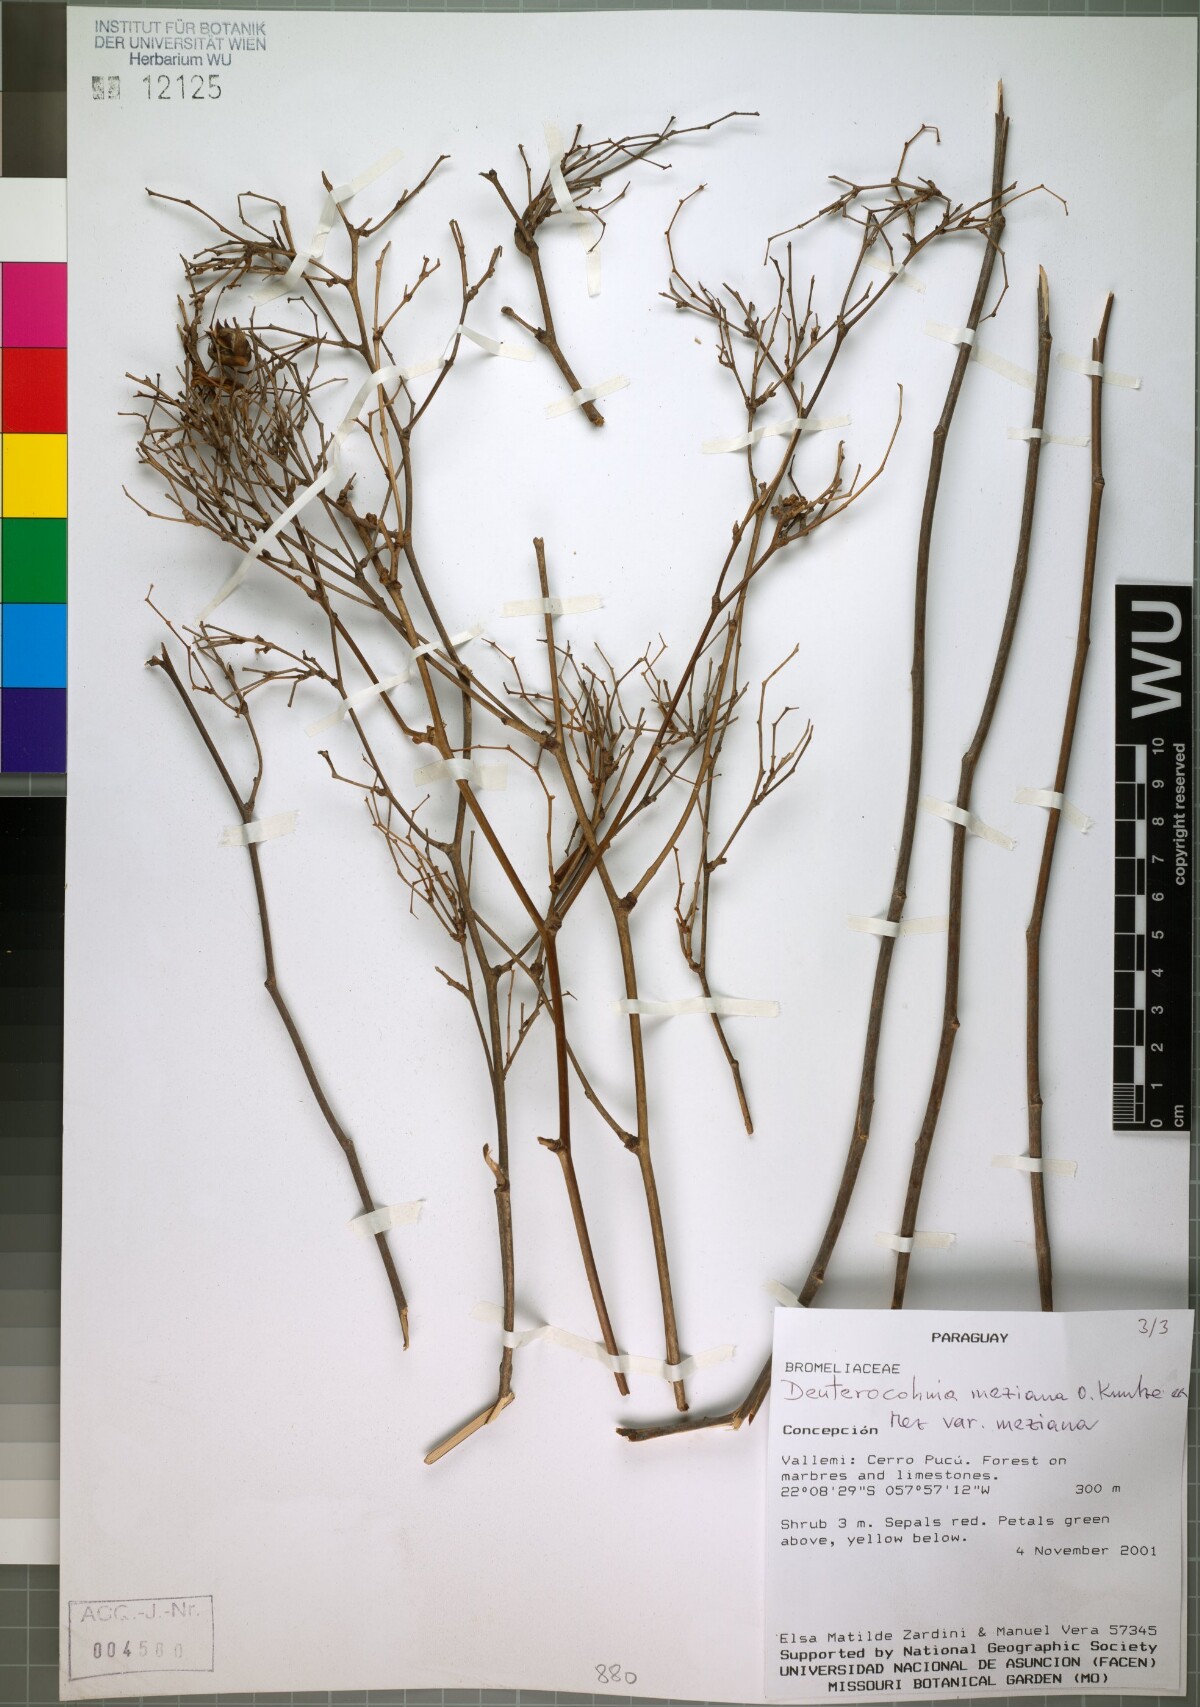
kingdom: Plantae
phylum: Tracheophyta
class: Liliopsida
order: Poales
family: Bromeliaceae
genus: Deuterocohnia
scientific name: Deuterocohnia meziana
